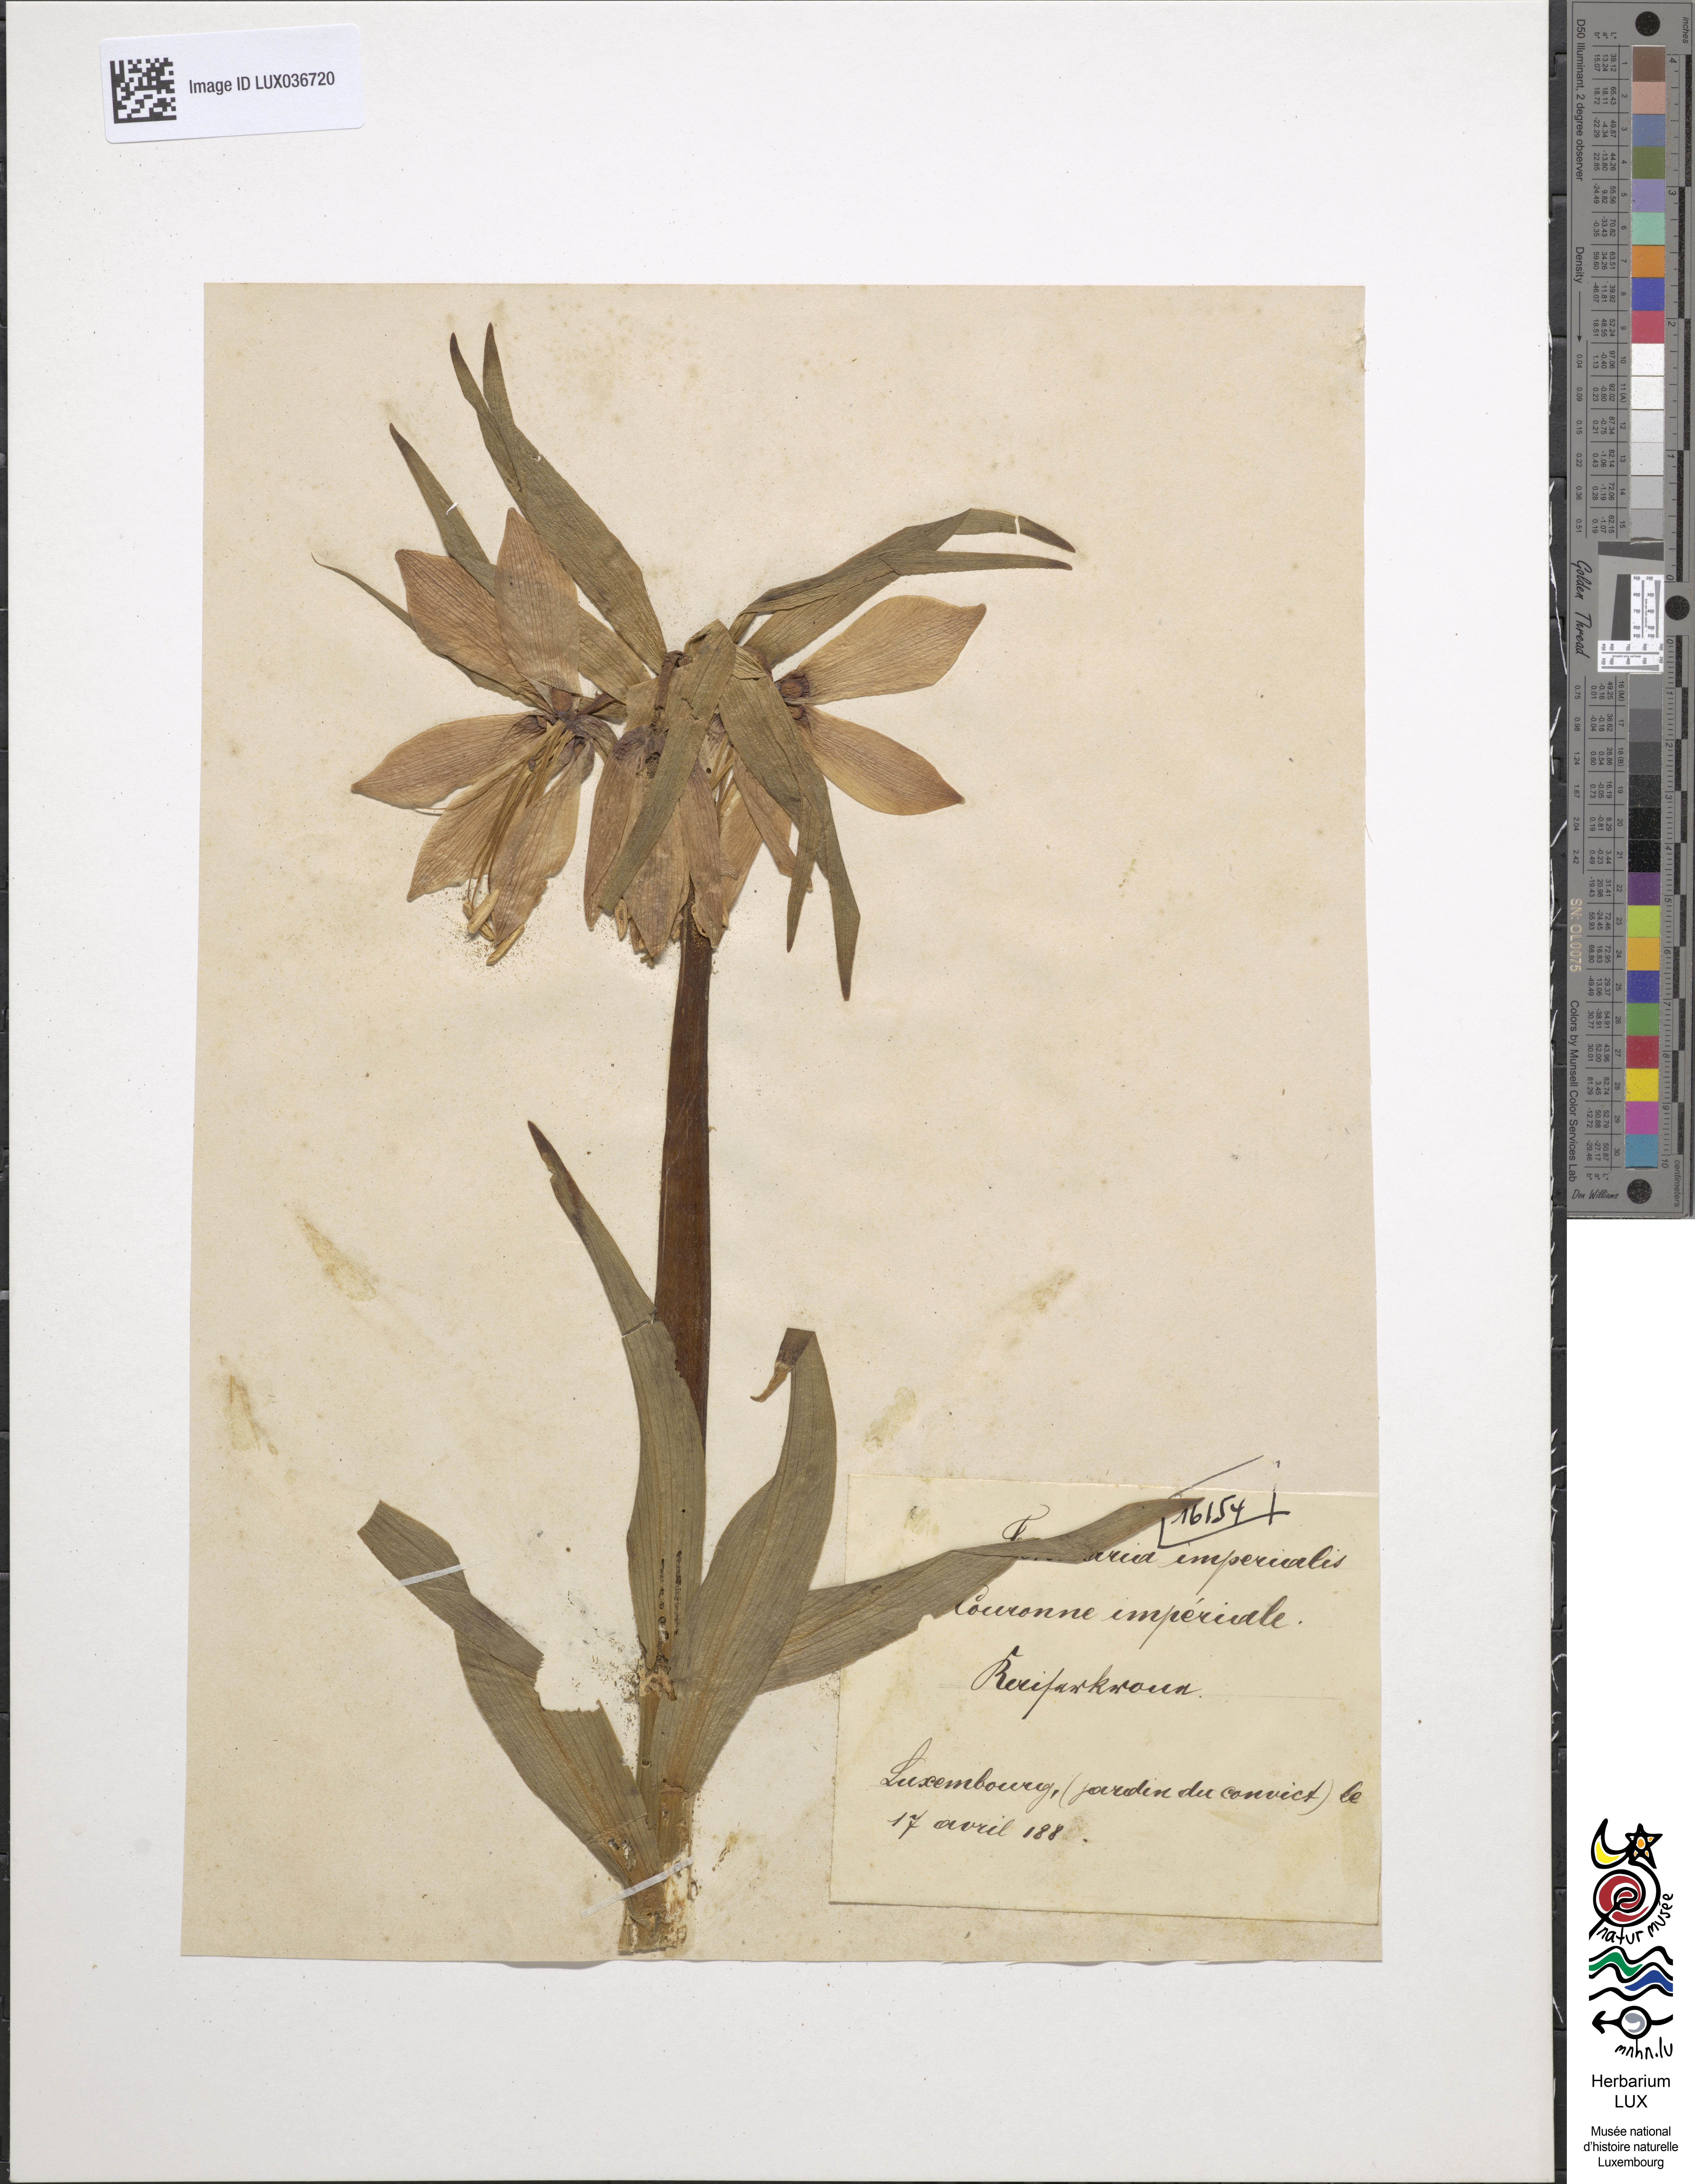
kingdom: Plantae
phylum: Tracheophyta
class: Liliopsida
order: Liliales
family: Liliaceae
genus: Fritillaria
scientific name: Fritillaria imperialis
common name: Imperial fritillary
